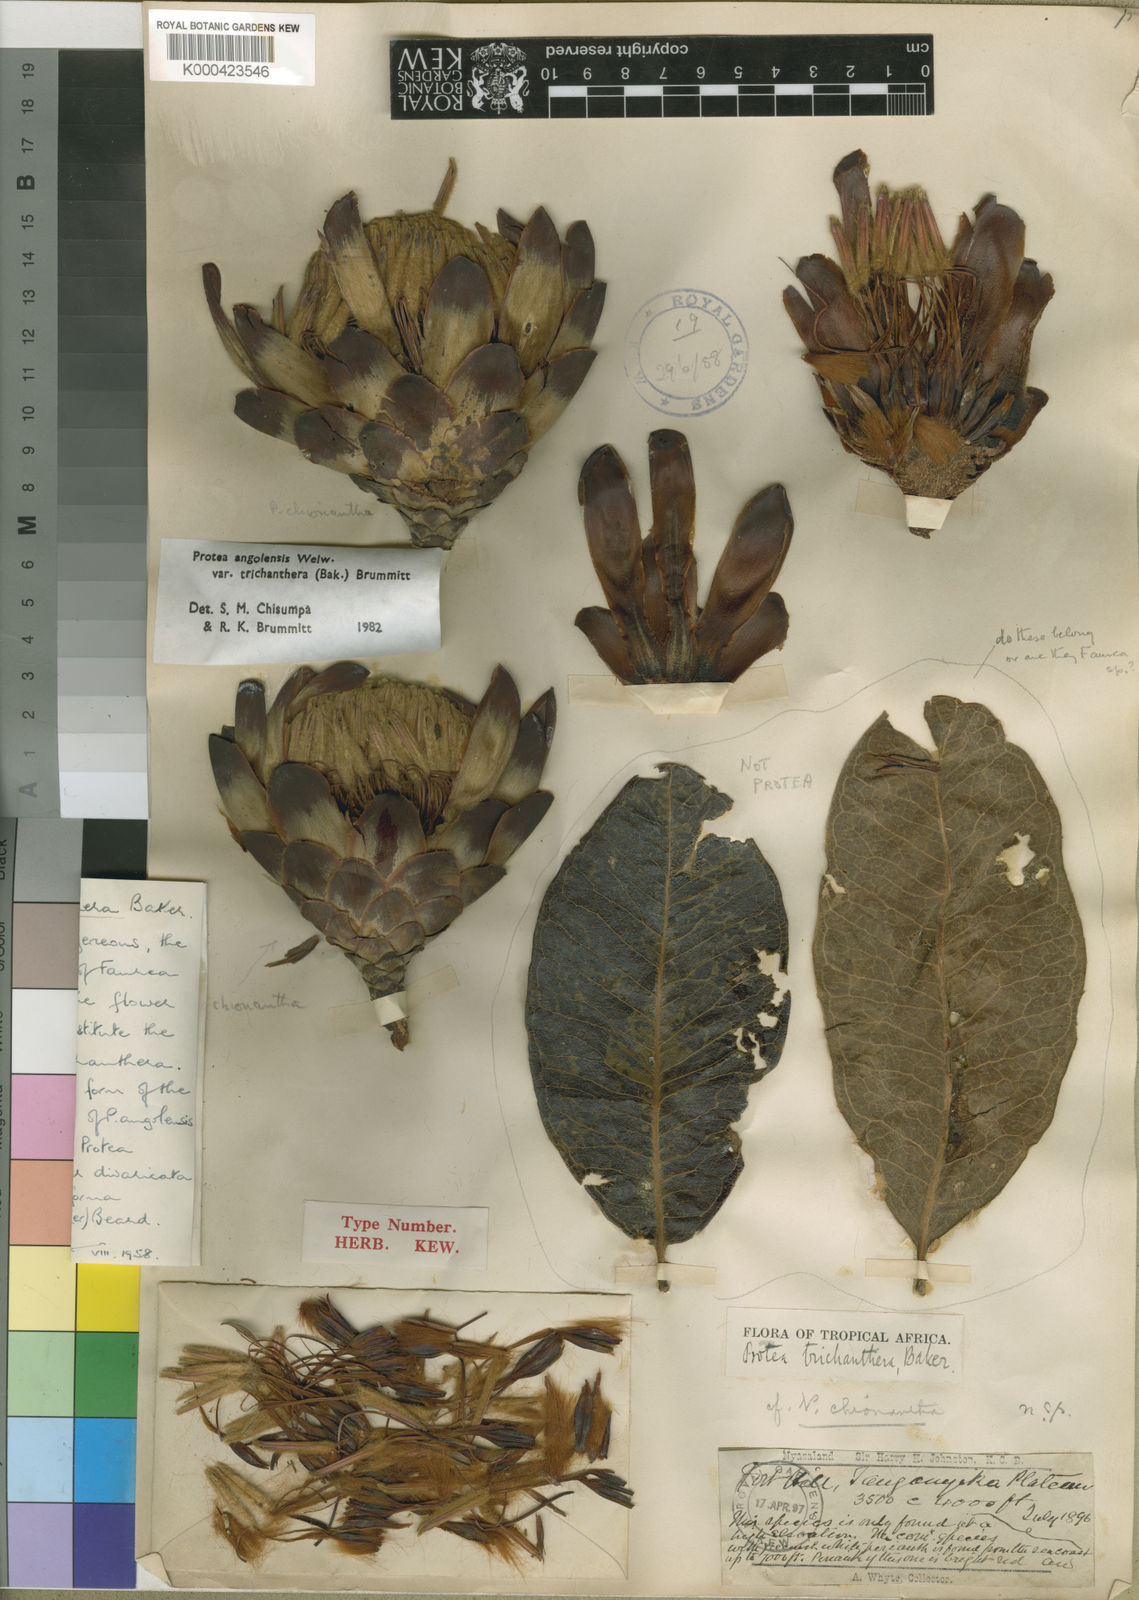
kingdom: Plantae
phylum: Tracheophyta
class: Magnoliopsida
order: Proteales
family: Proteaceae
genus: Protea
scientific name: Protea angolensis
